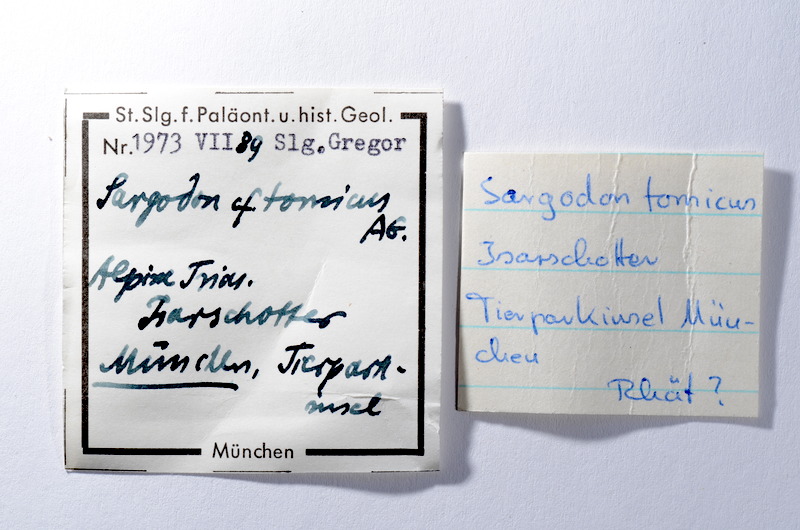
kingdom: Animalia
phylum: Chordata
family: Semionotidae
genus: Sargodon
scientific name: Sargodon tomicus
